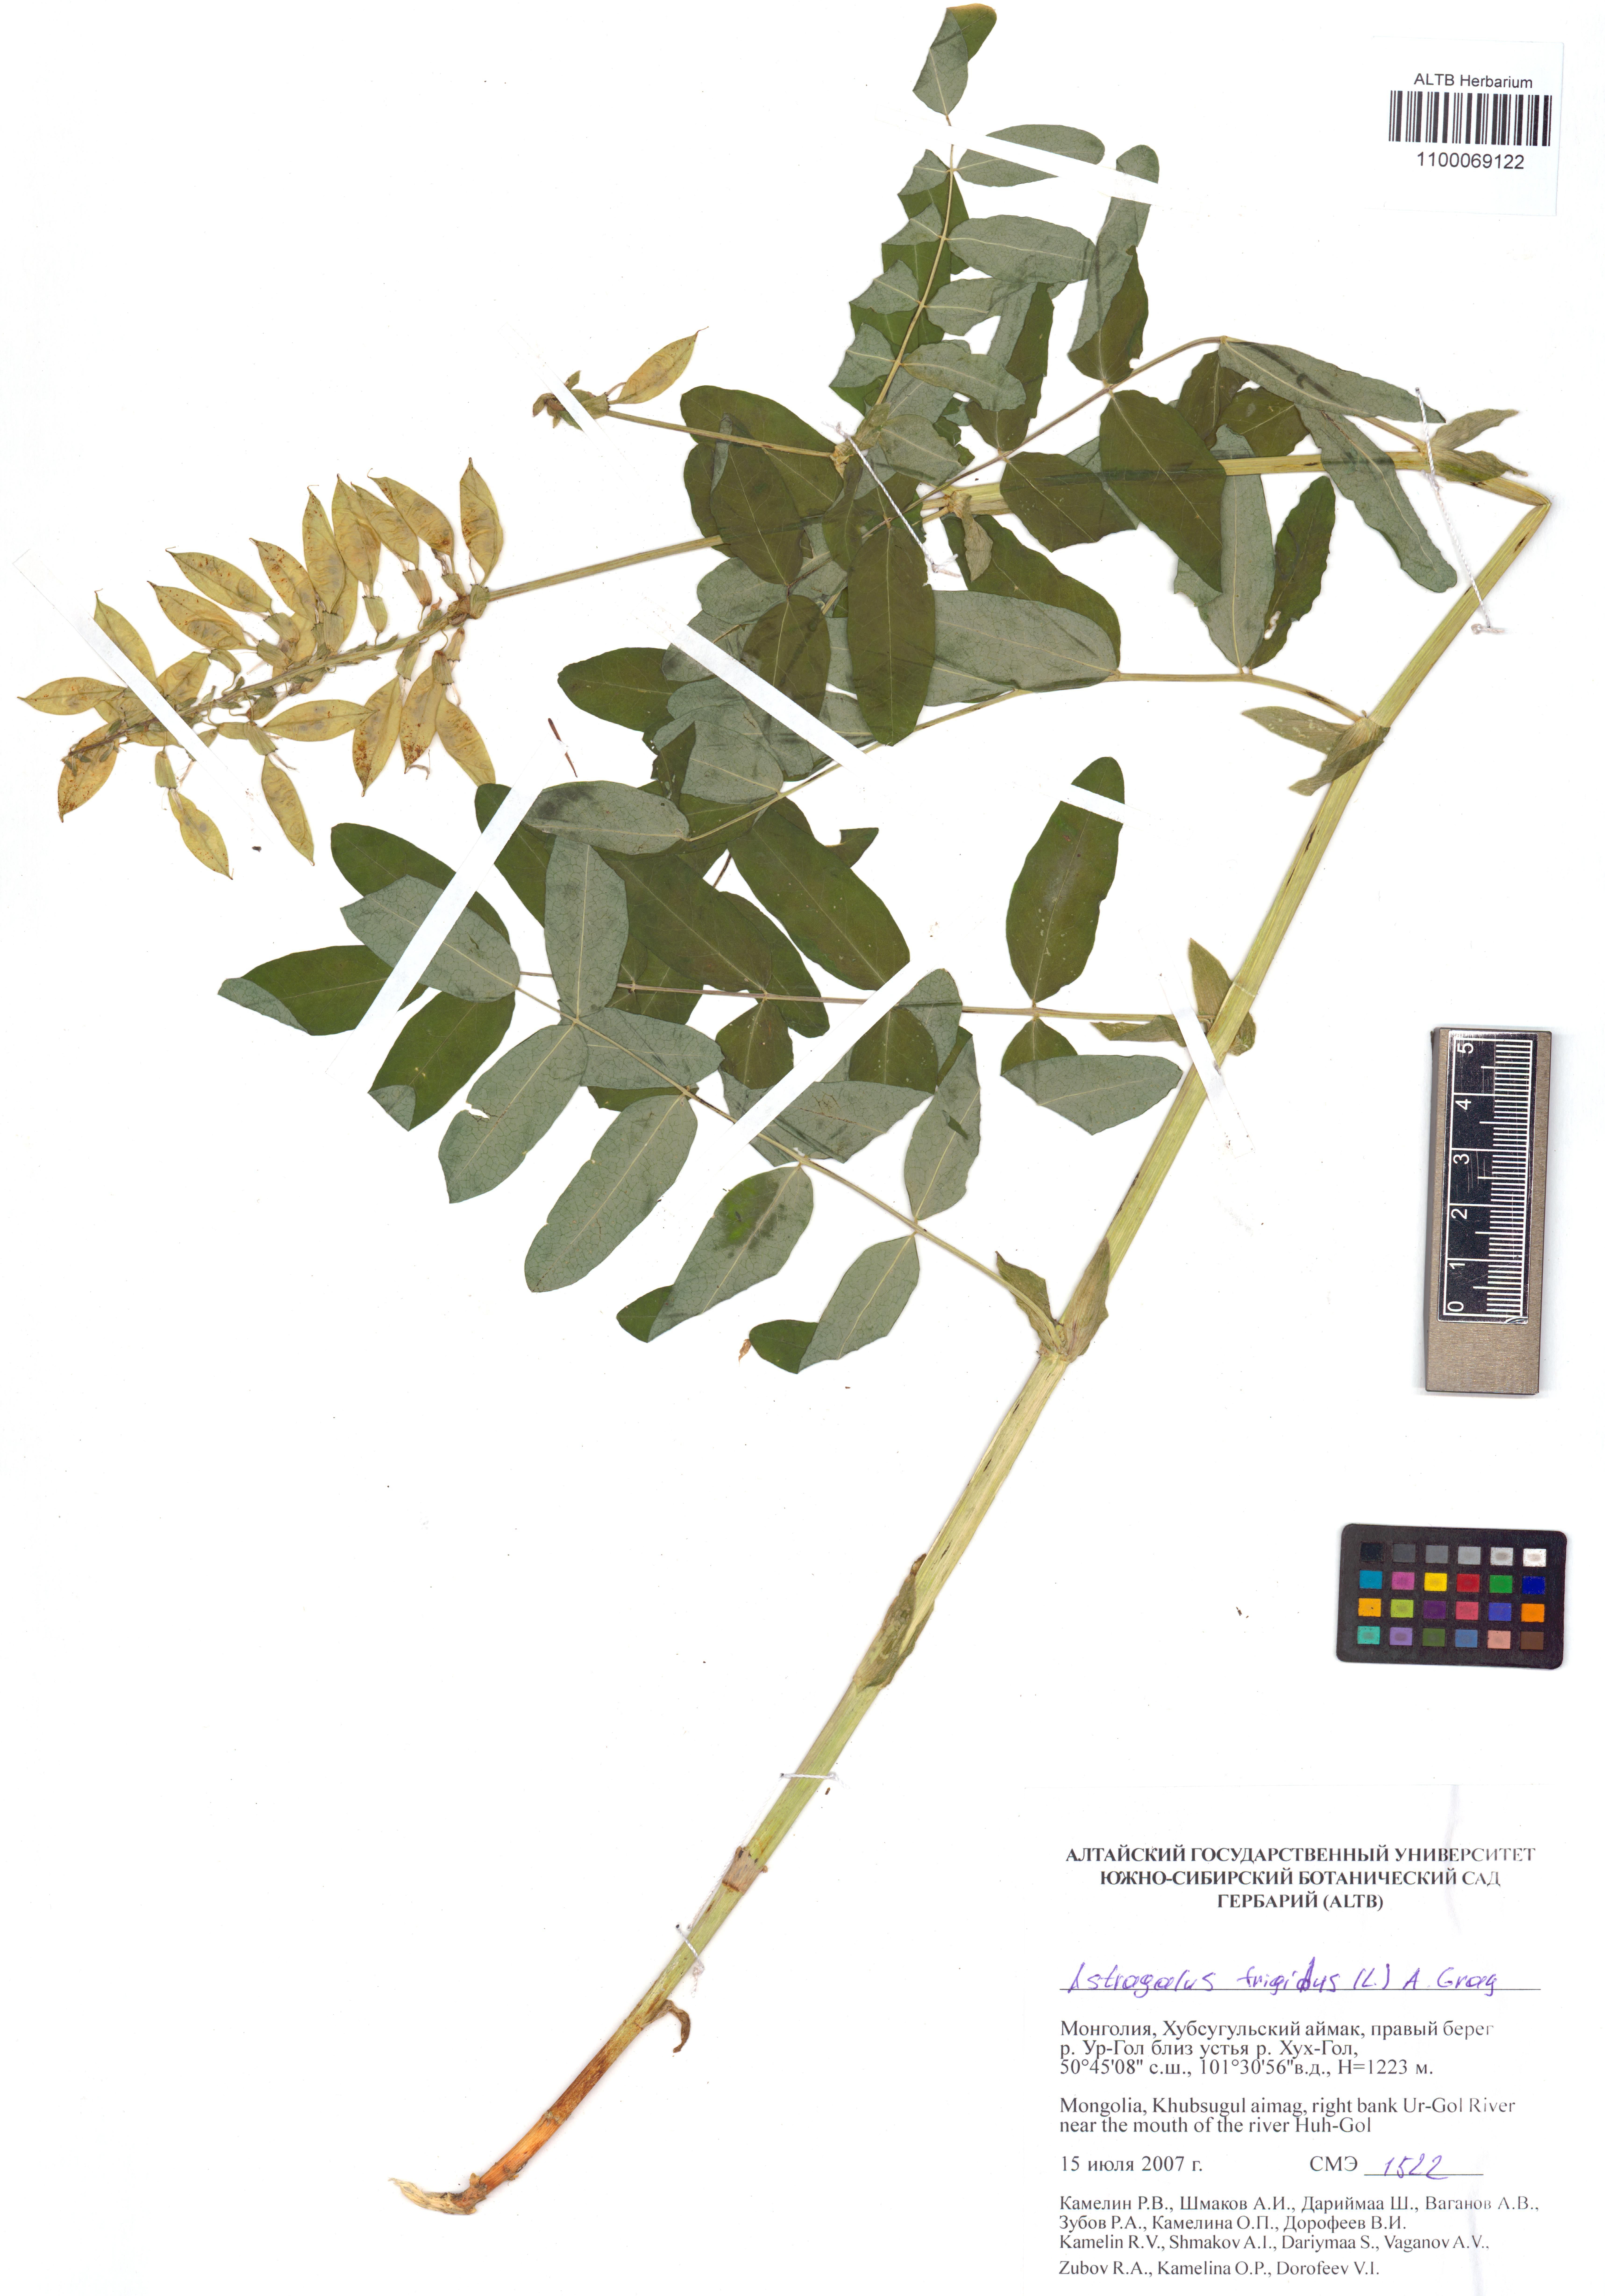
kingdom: Plantae
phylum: Tracheophyta
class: Magnoliopsida
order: Fabales
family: Fabaceae
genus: Astragalus
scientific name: Astragalus frigidus
